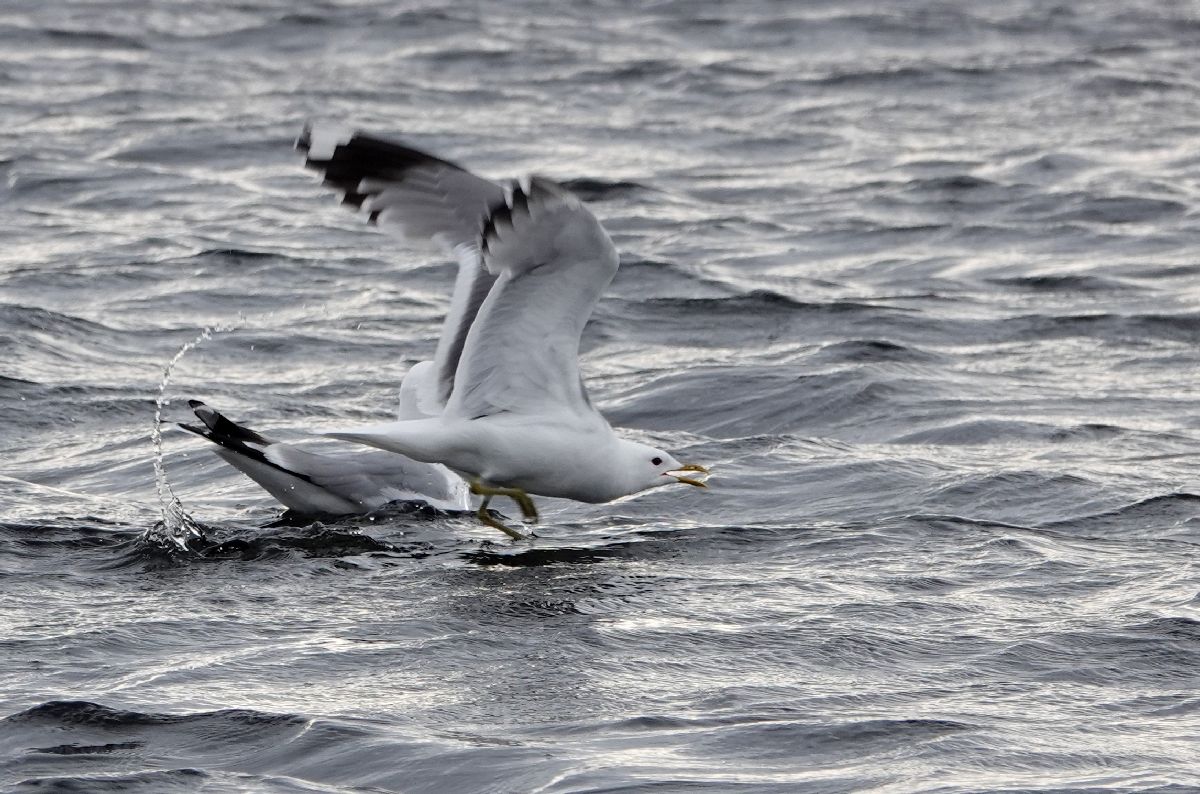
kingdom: Animalia
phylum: Chordata
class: Aves
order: Charadriiformes
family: Laridae
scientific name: Laridae
